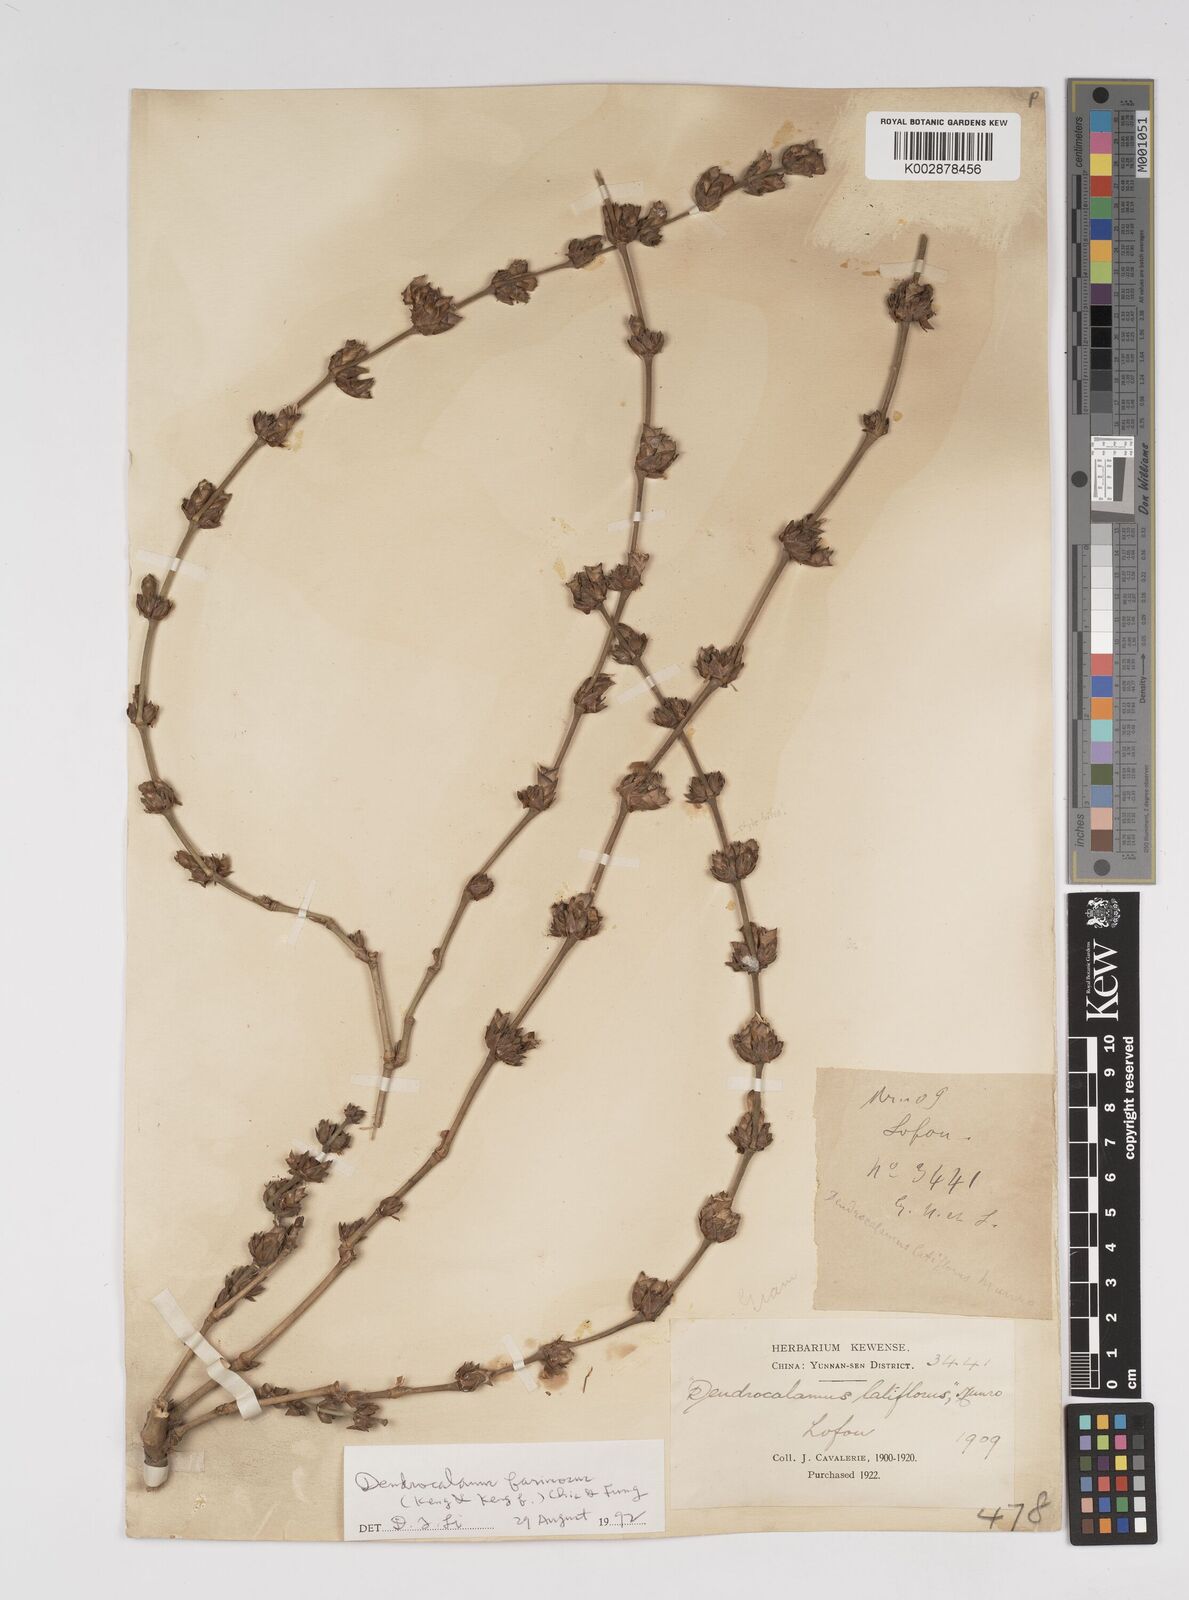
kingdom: Plantae
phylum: Tracheophyta
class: Liliopsida
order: Poales
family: Poaceae
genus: Dendrocalamus
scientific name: Dendrocalamus farinosus
